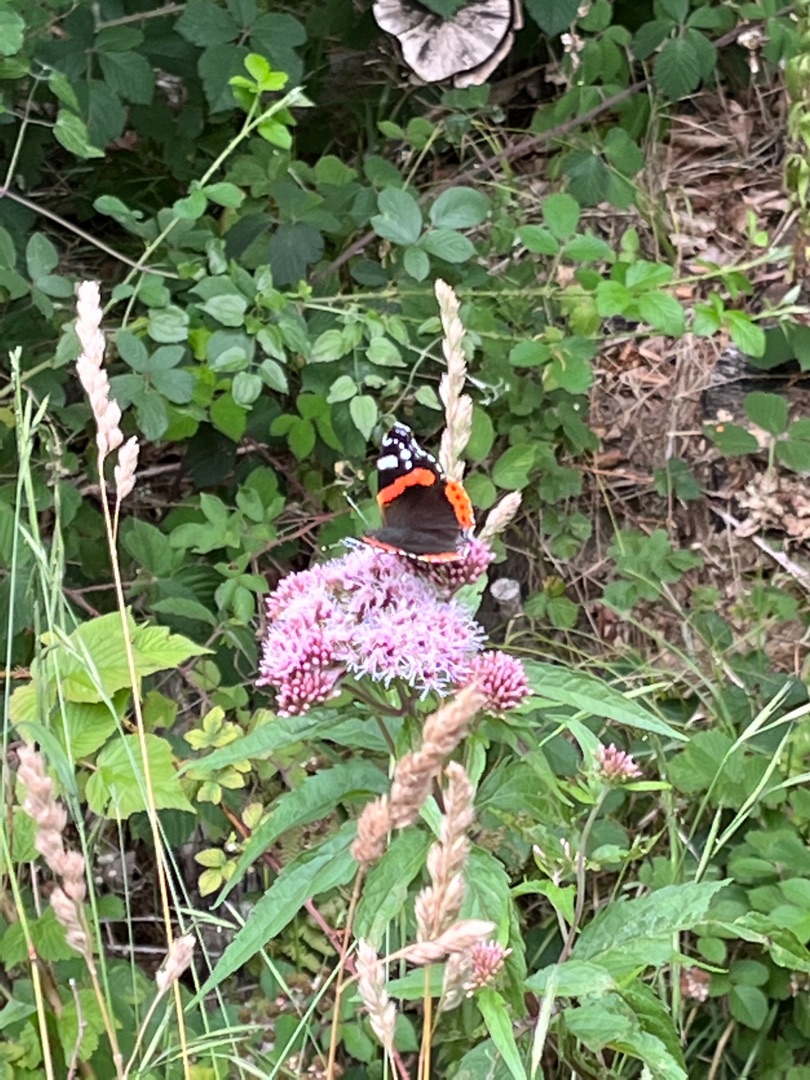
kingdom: Animalia
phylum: Arthropoda
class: Insecta
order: Lepidoptera
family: Nymphalidae
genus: Vanessa
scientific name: Vanessa atalanta
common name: Admiral
